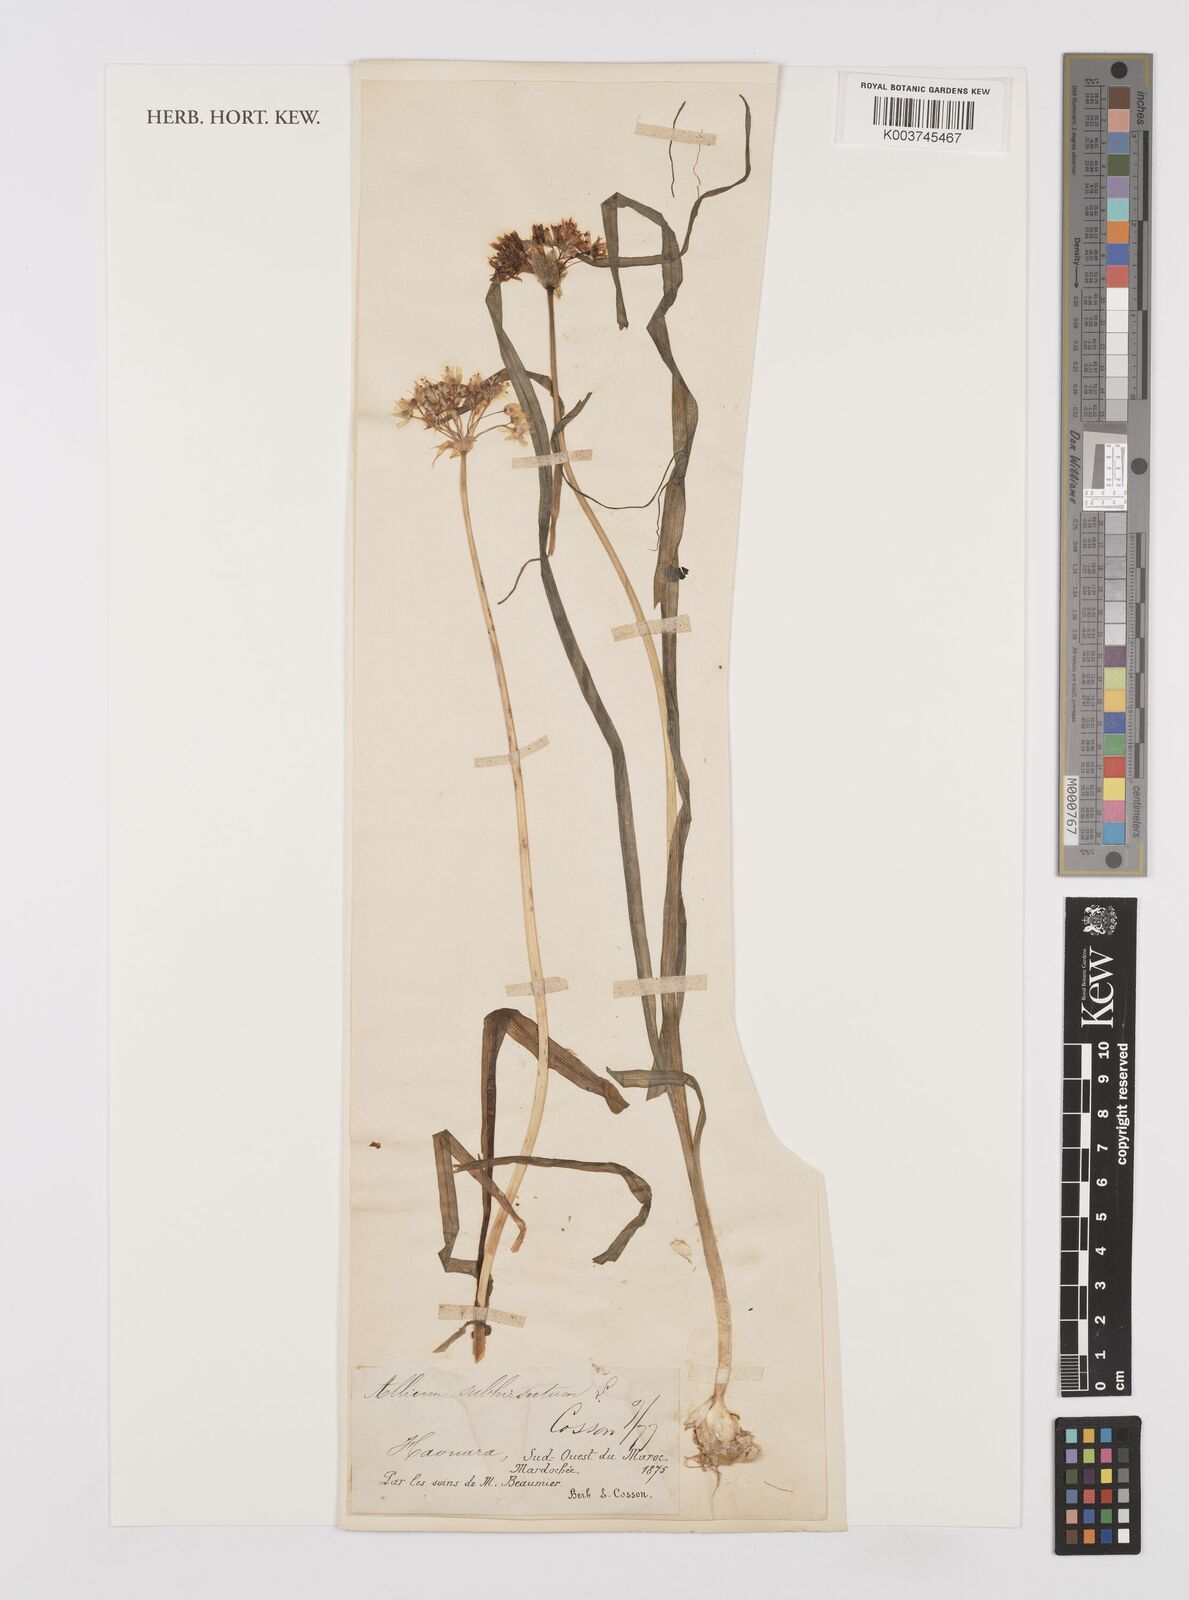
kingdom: Plantae
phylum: Tracheophyta
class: Liliopsida
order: Asparagales
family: Amaryllidaceae
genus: Allium
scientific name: Allium subhirsutum
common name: Hairy garlic
